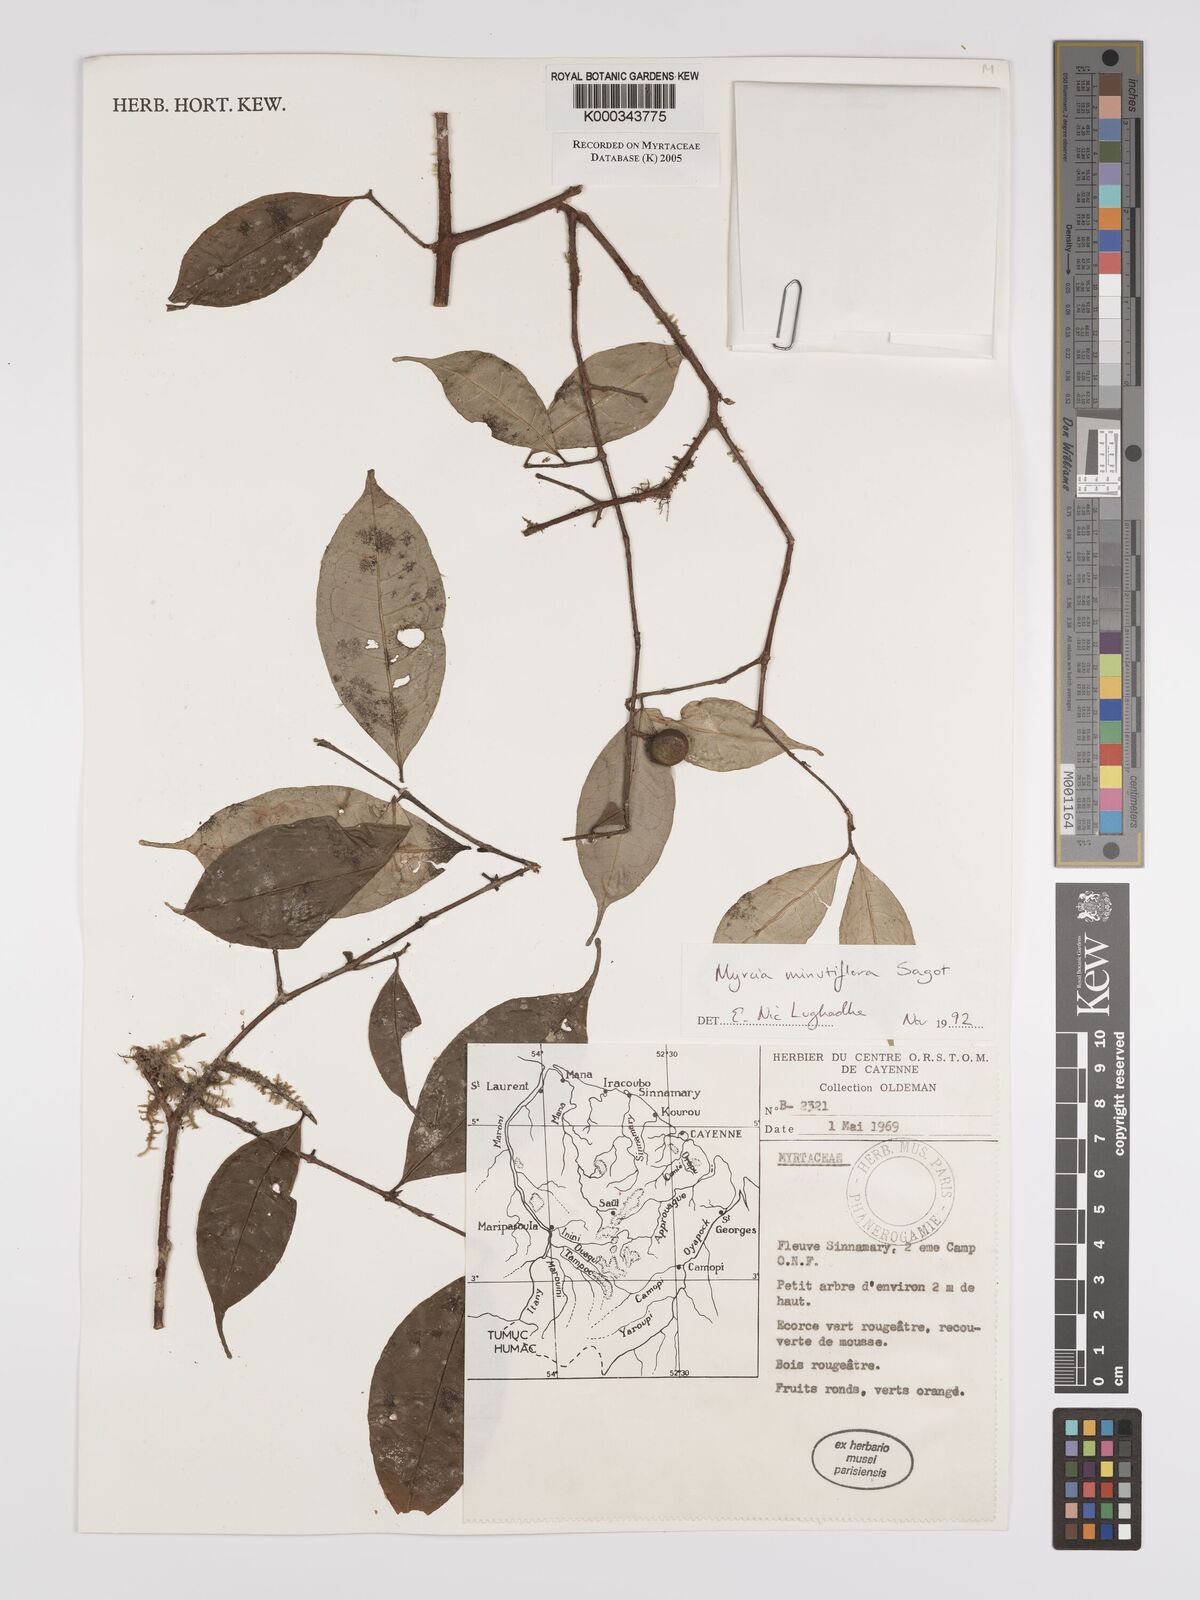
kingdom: Plantae
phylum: Tracheophyta
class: Magnoliopsida
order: Myrtales
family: Myrtaceae
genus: Myrcia
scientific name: Myrcia minutiflora
